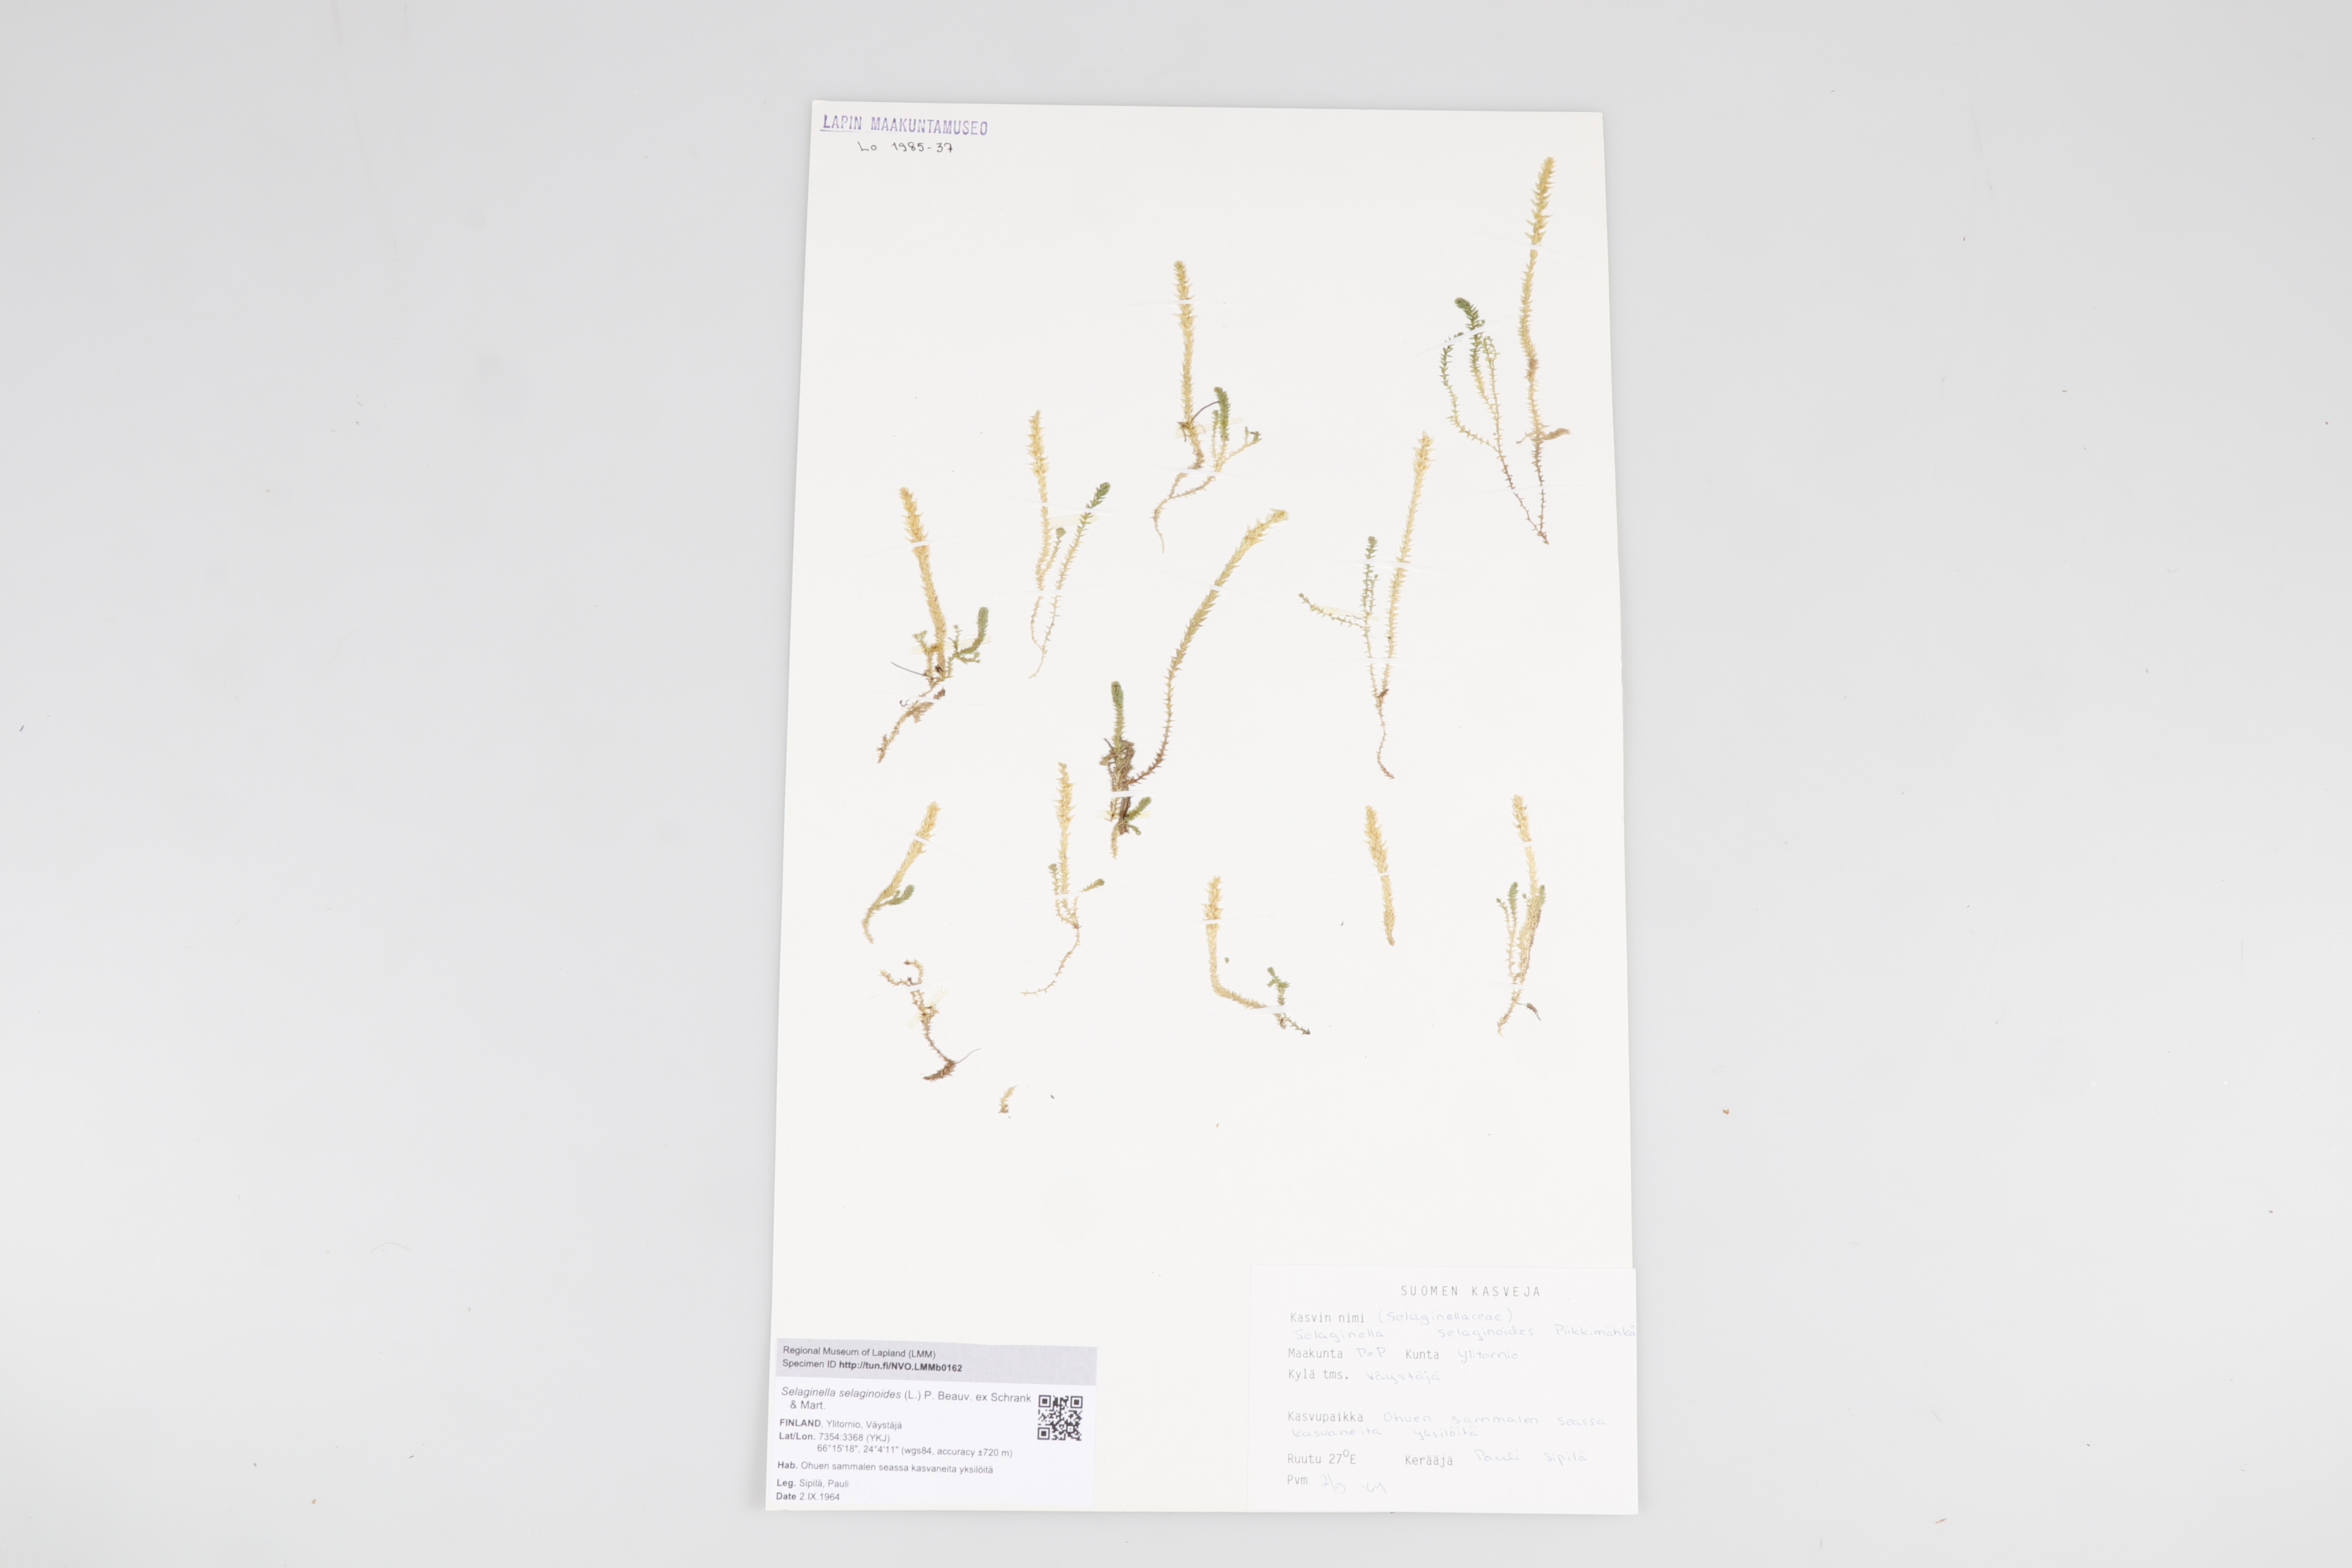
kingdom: Plantae
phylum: Tracheophyta
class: Lycopodiopsida
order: Selaginellales
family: Selaginellaceae
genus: Selaginella
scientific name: Selaginella selaginoides
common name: Prickly mountain-moss
